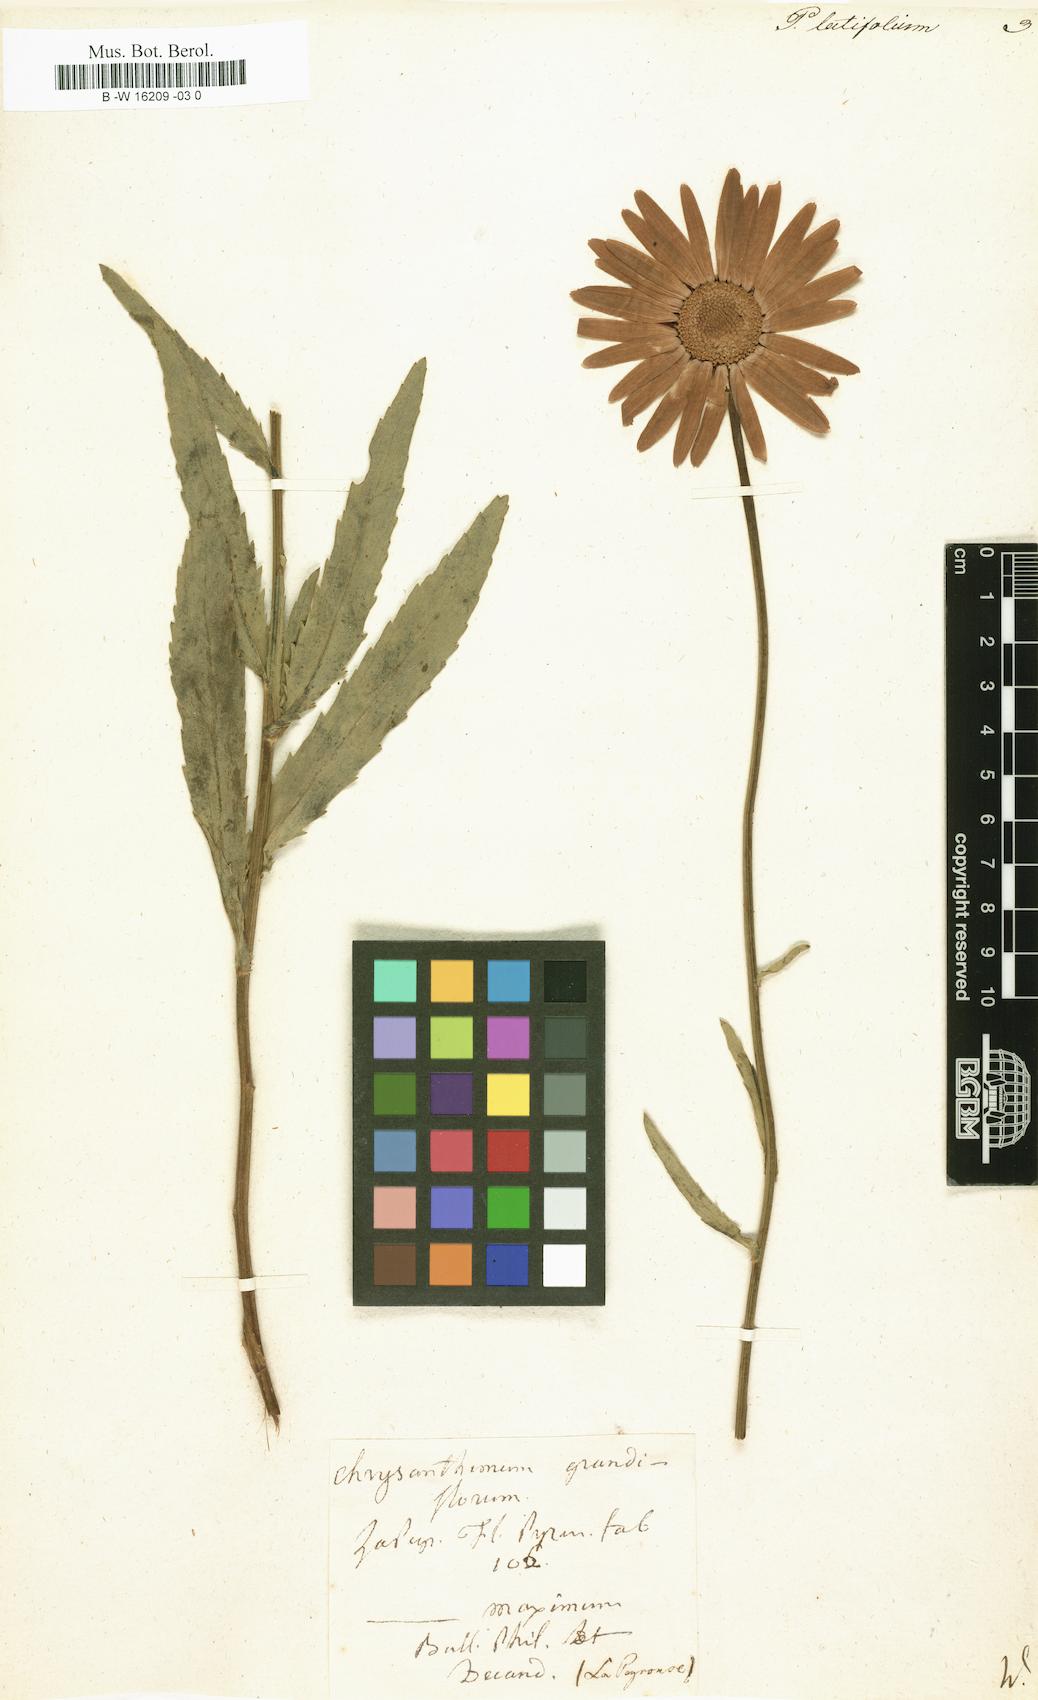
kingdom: Plantae
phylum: Tracheophyta
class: Magnoliopsida
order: Asterales
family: Asteraceae
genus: Leucanthemum
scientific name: Leucanthemum lacustre
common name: Portuguese daisy
